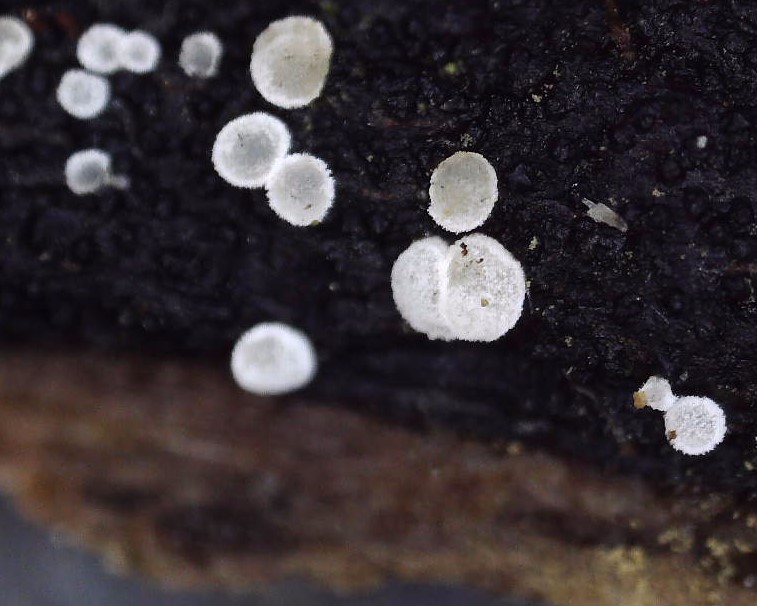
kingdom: Fungi
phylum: Ascomycota
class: Leotiomycetes
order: Helotiales
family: Hyaloscyphaceae
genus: Polydesmia
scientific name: Polydesmia pruinosa
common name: dunskive
